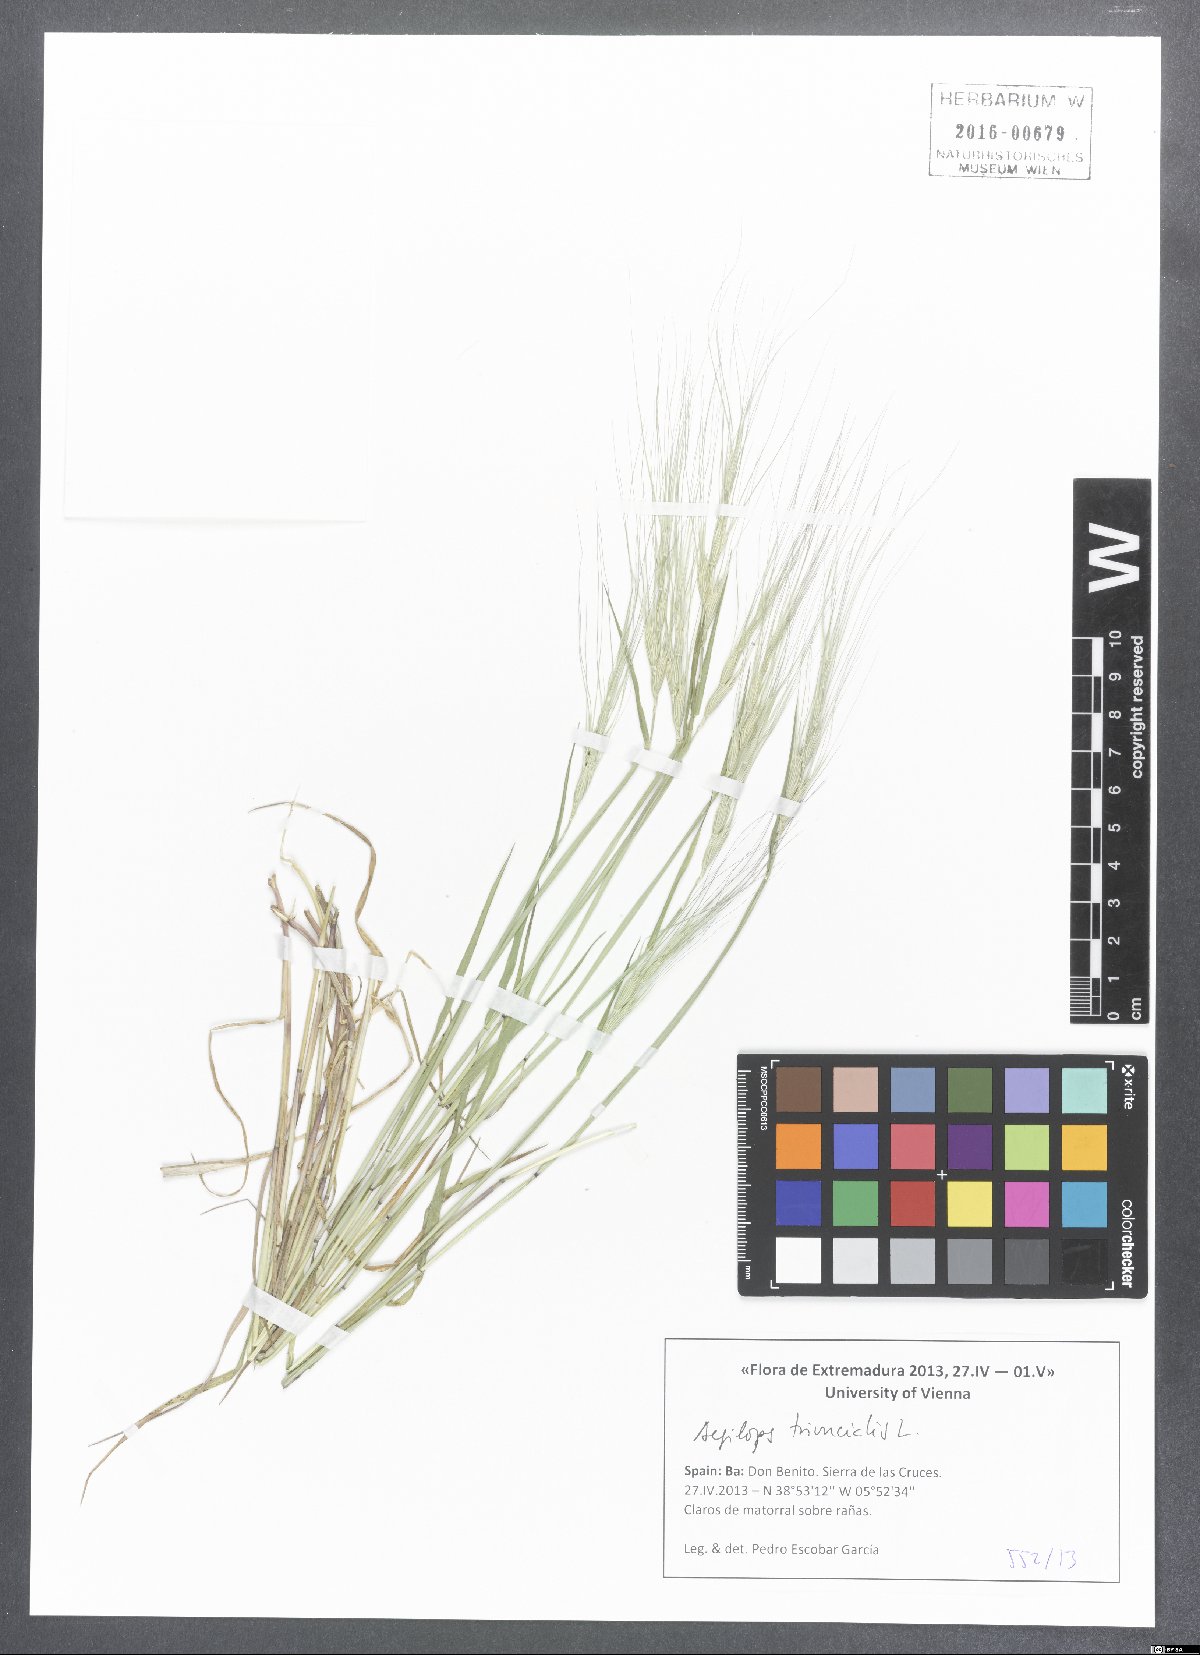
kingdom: Plantae
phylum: Tracheophyta
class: Liliopsida
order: Poales
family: Poaceae
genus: Aegilops
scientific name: Aegilops triuncialis
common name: Barb goat grass
